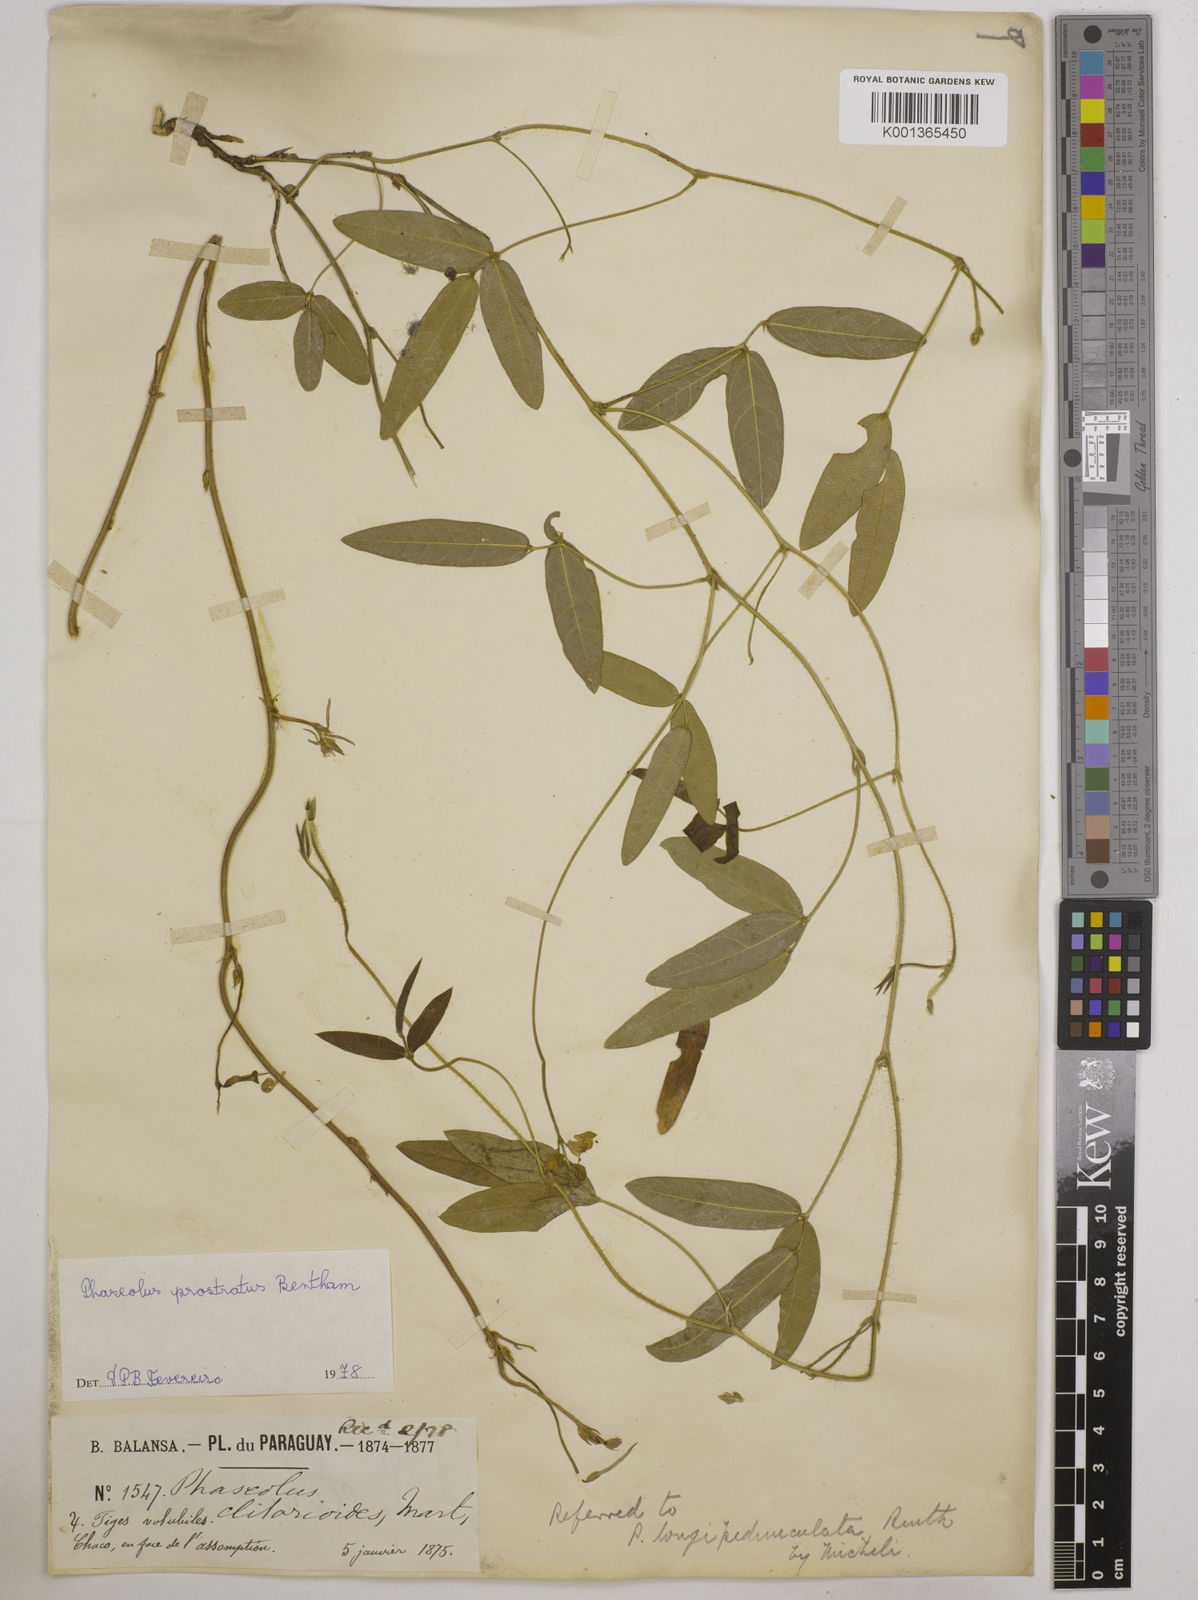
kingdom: Plantae
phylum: Tracheophyta
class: Magnoliopsida
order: Fabales
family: Fabaceae
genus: Macroptilium
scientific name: Macroptilium prostratum
